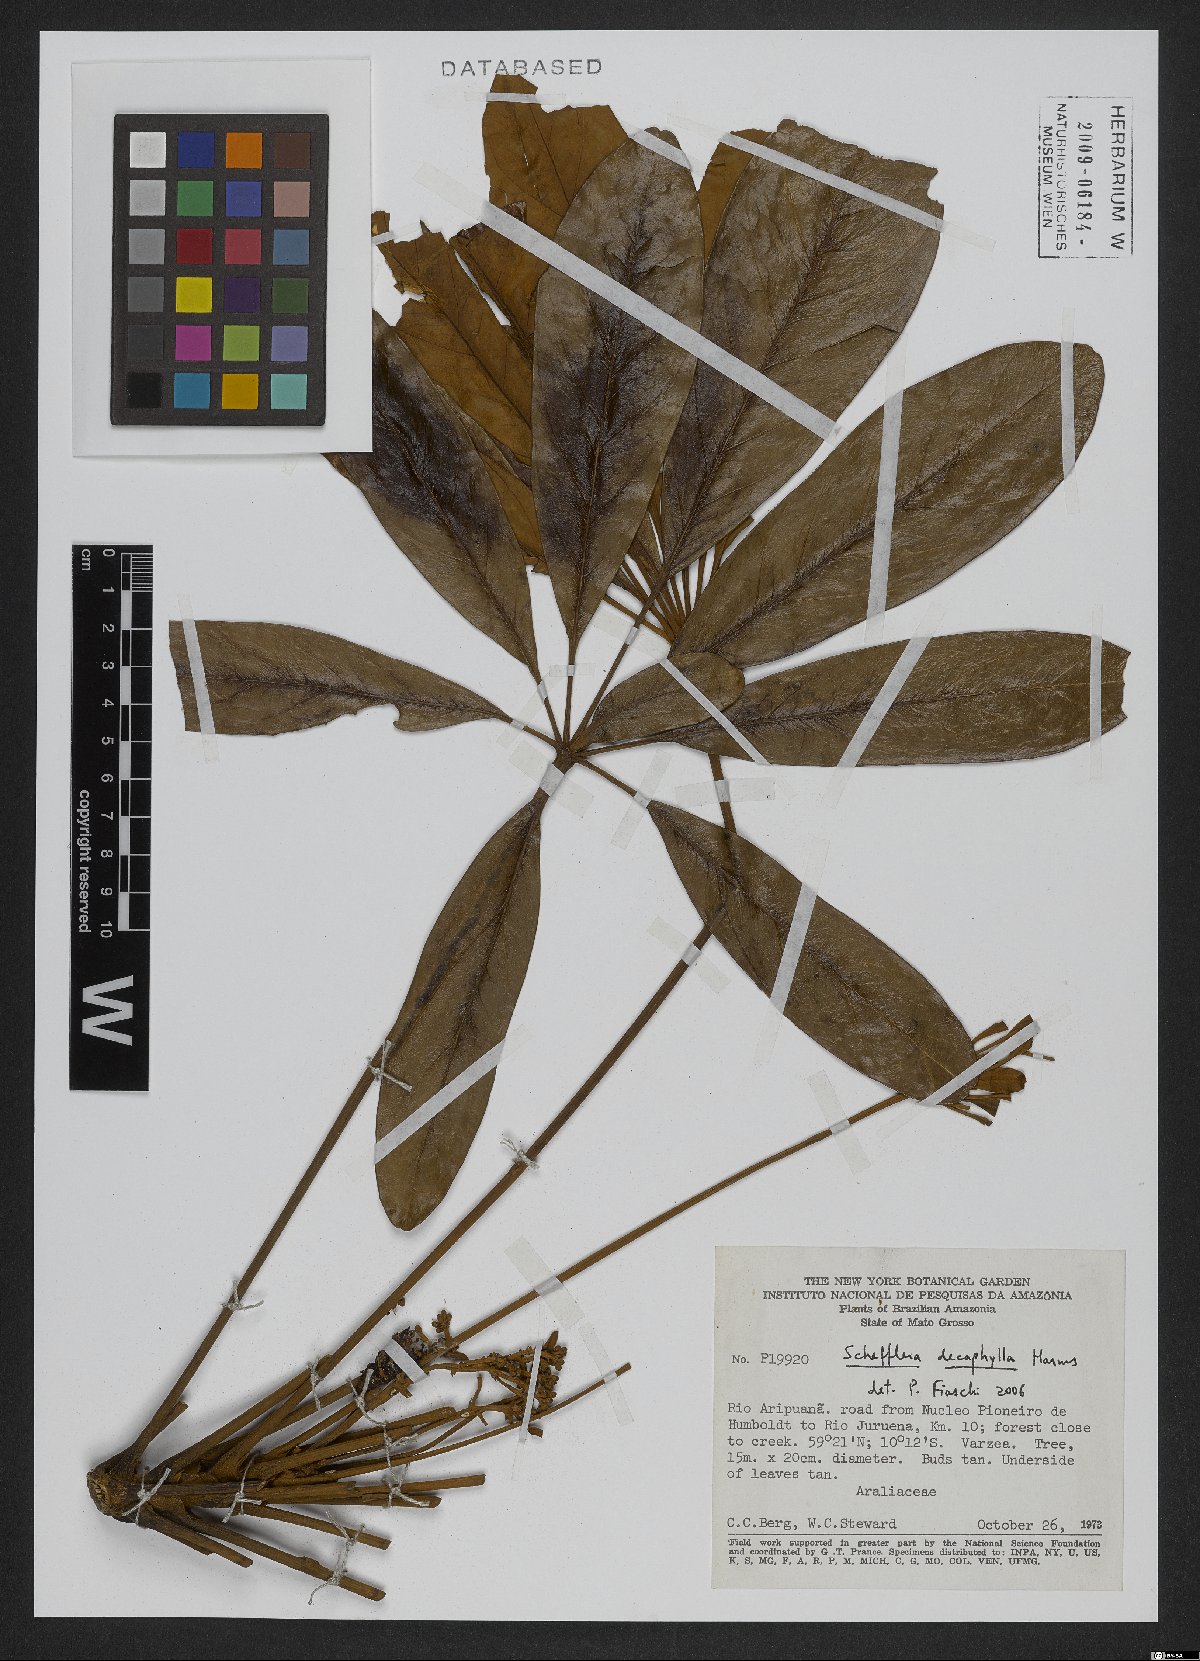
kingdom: Plantae
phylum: Tracheophyta
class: Magnoliopsida
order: Apiales
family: Araliaceae
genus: Didymopanax
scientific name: Didymopanax decaphyllus
